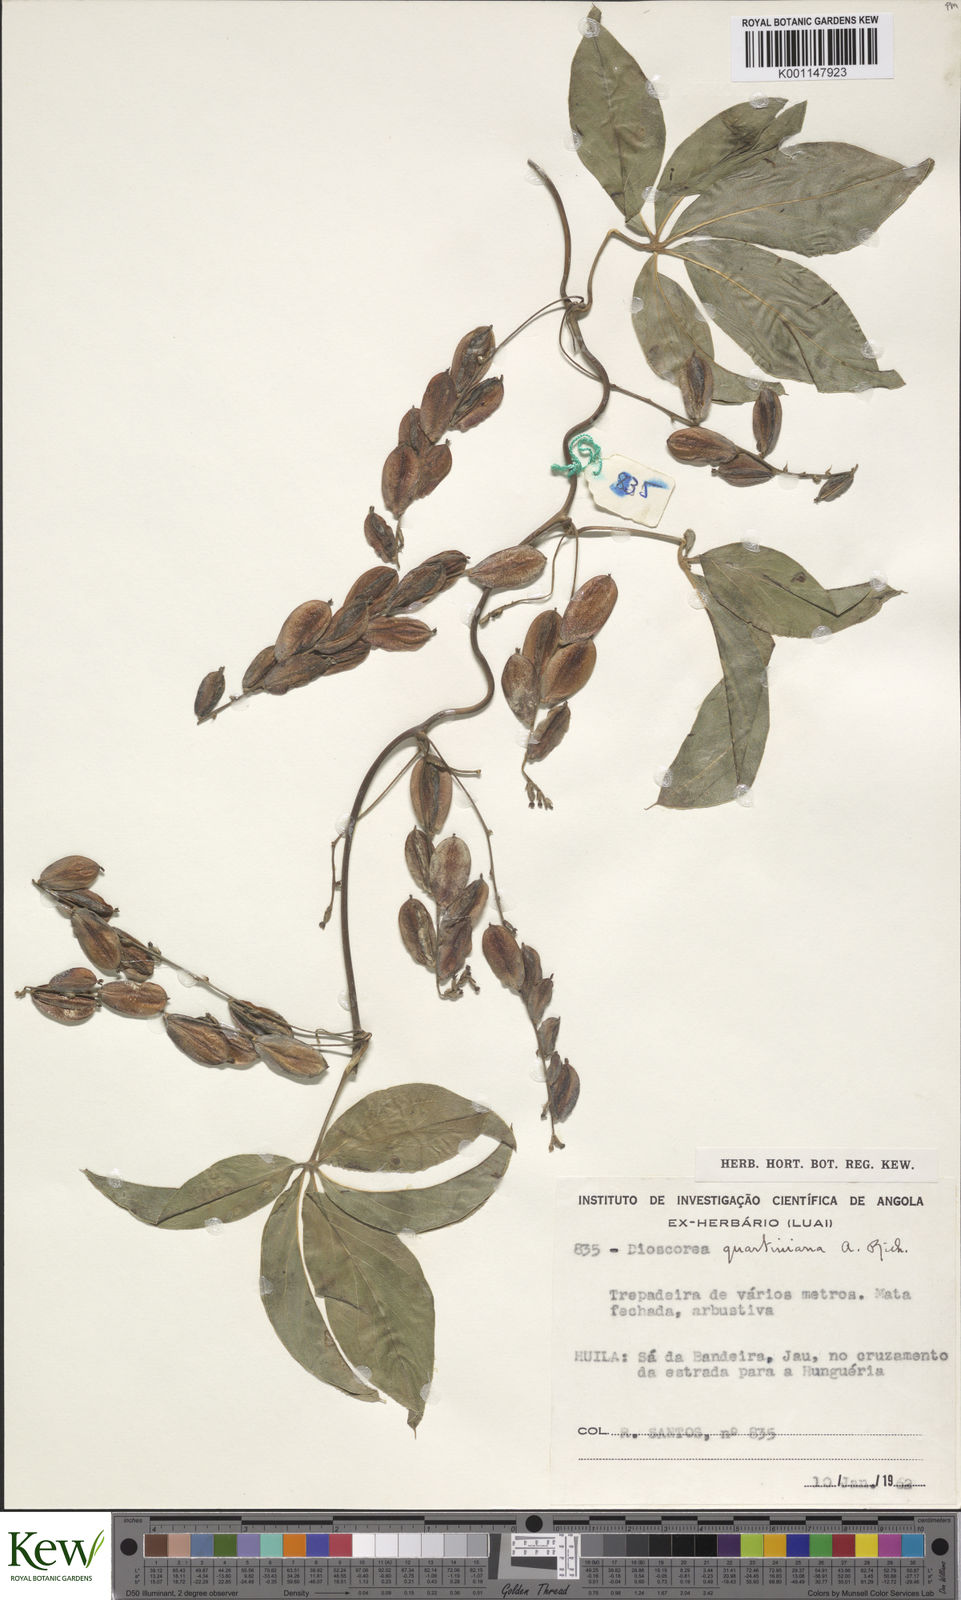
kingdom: Plantae
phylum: Tracheophyta
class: Liliopsida
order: Dioscoreales
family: Dioscoreaceae
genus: Dioscorea
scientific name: Dioscorea quartiniana
